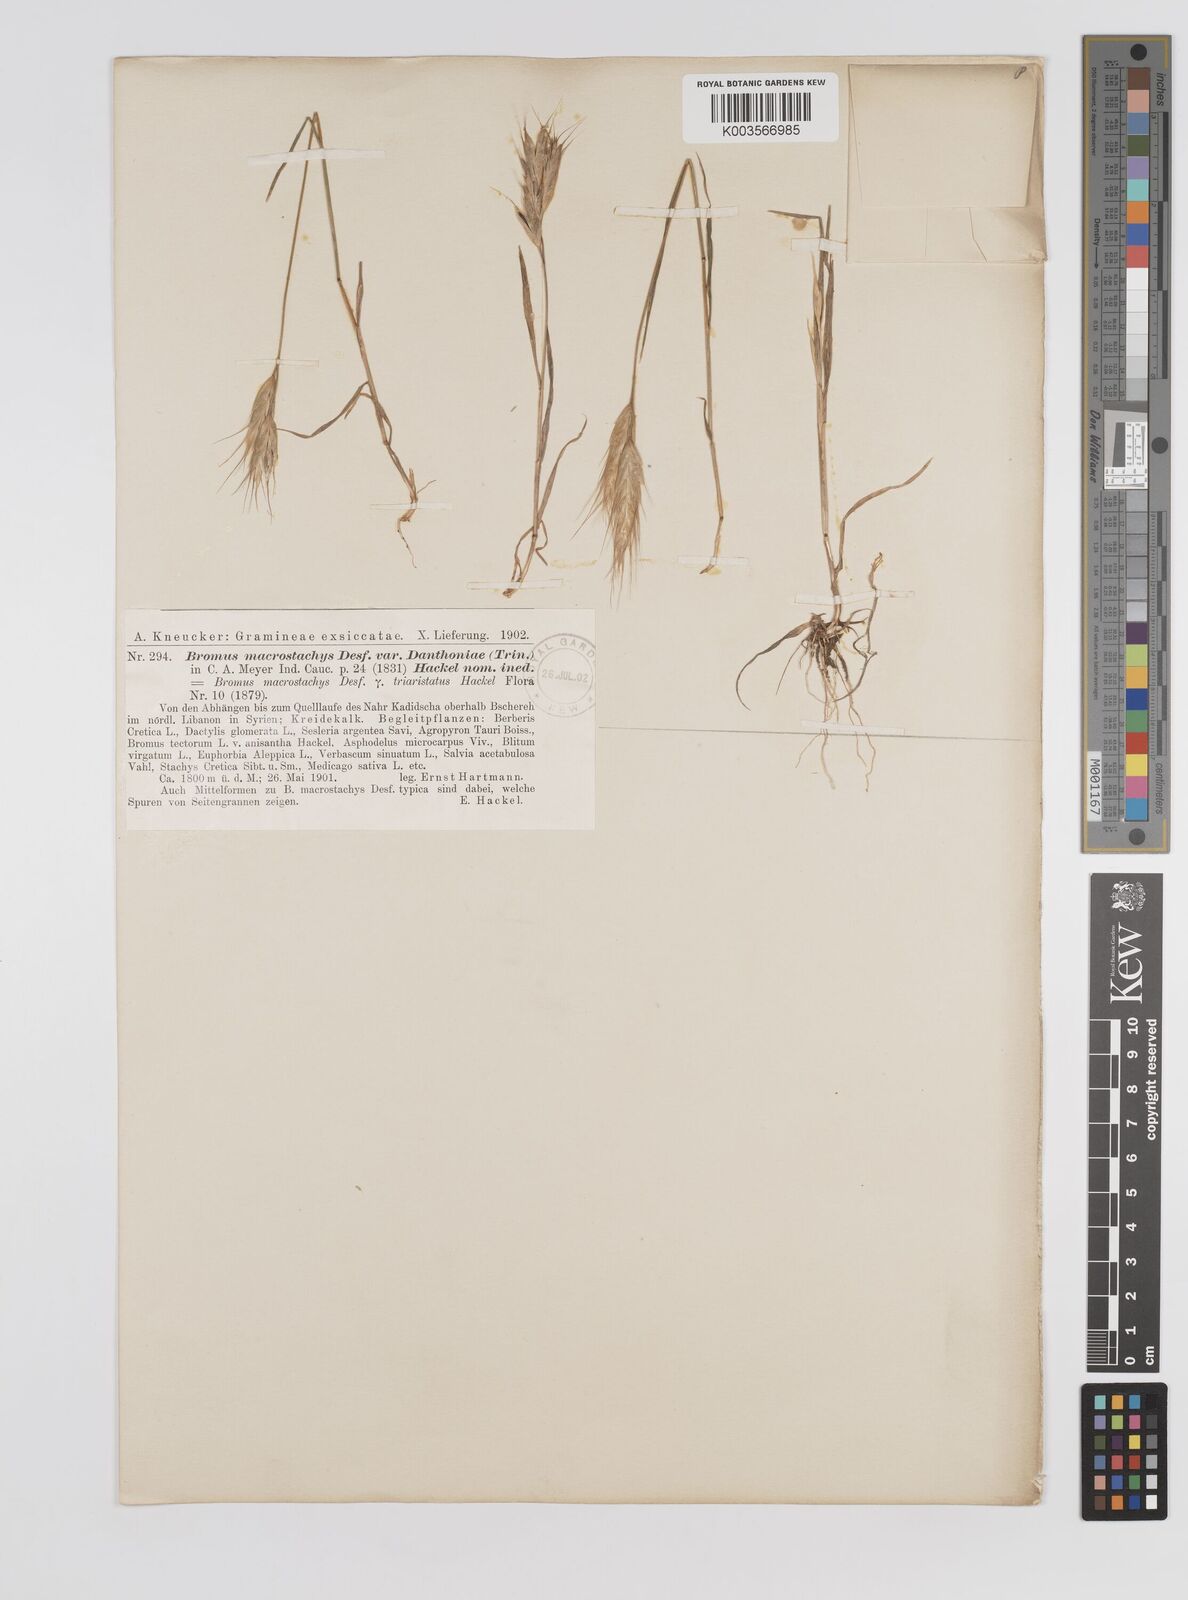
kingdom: Plantae
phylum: Tracheophyta
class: Liliopsida
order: Poales
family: Poaceae
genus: Bromus
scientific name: Bromus danthoniae
